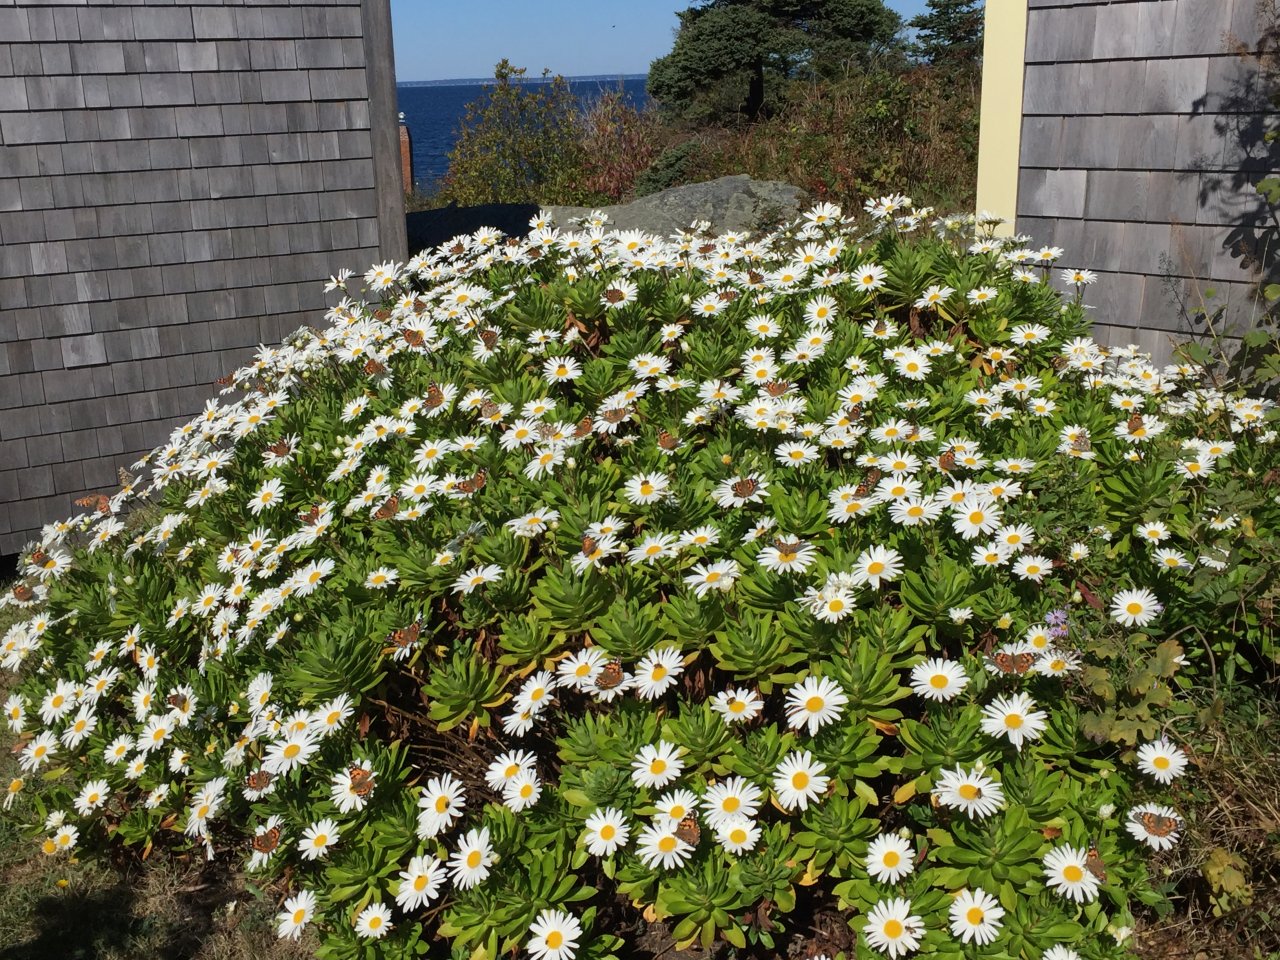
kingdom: Animalia
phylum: Arthropoda
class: Insecta
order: Lepidoptera
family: Nymphalidae
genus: Vanessa
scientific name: Vanessa cardui
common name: Painted Lady
